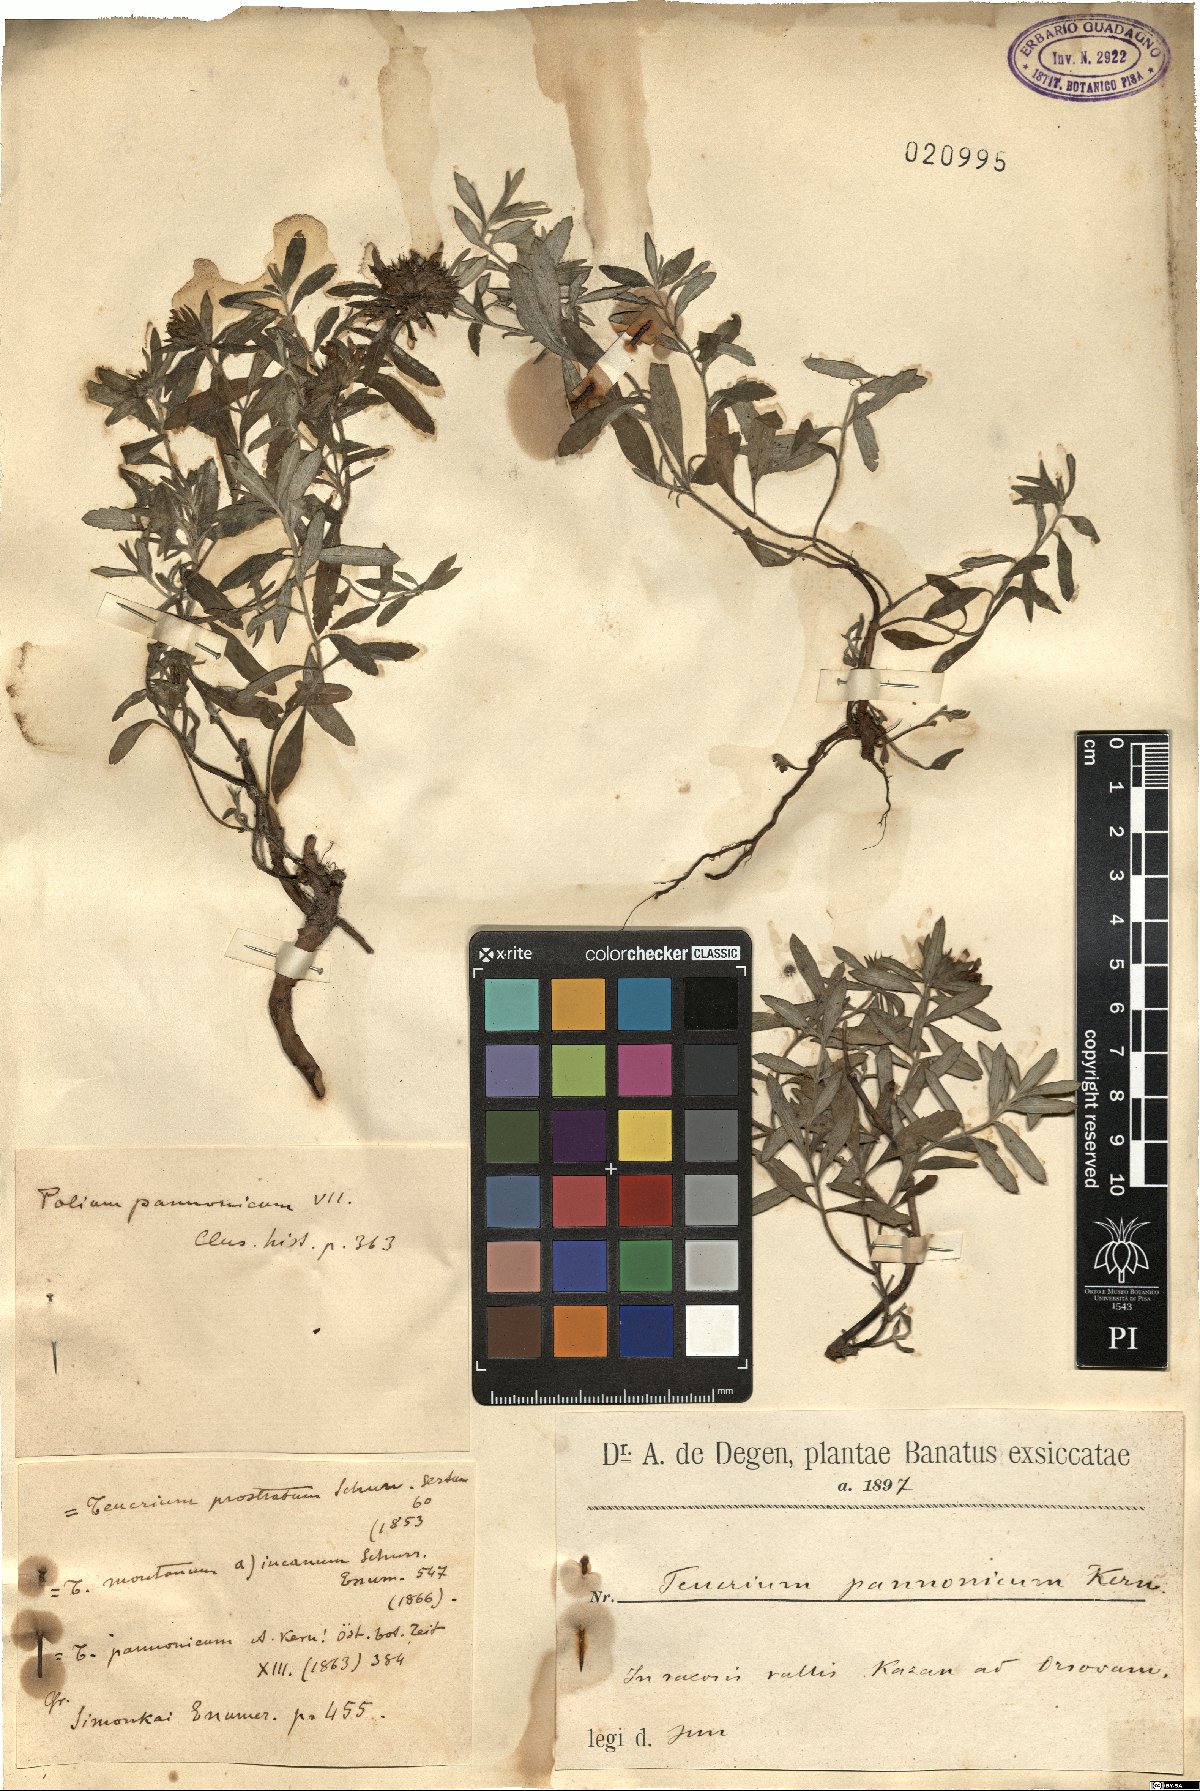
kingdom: Plantae
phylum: Tracheophyta
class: Magnoliopsida
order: Lamiales
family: Lamiaceae
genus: Teucrium
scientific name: Teucrium montanum
